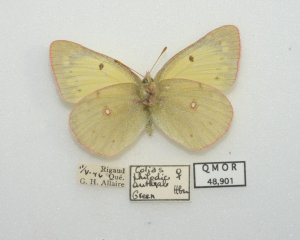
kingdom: Animalia
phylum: Arthropoda
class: Insecta
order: Lepidoptera
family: Pieridae
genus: Colias
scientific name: Colias philodice
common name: Clouded Sulphur
